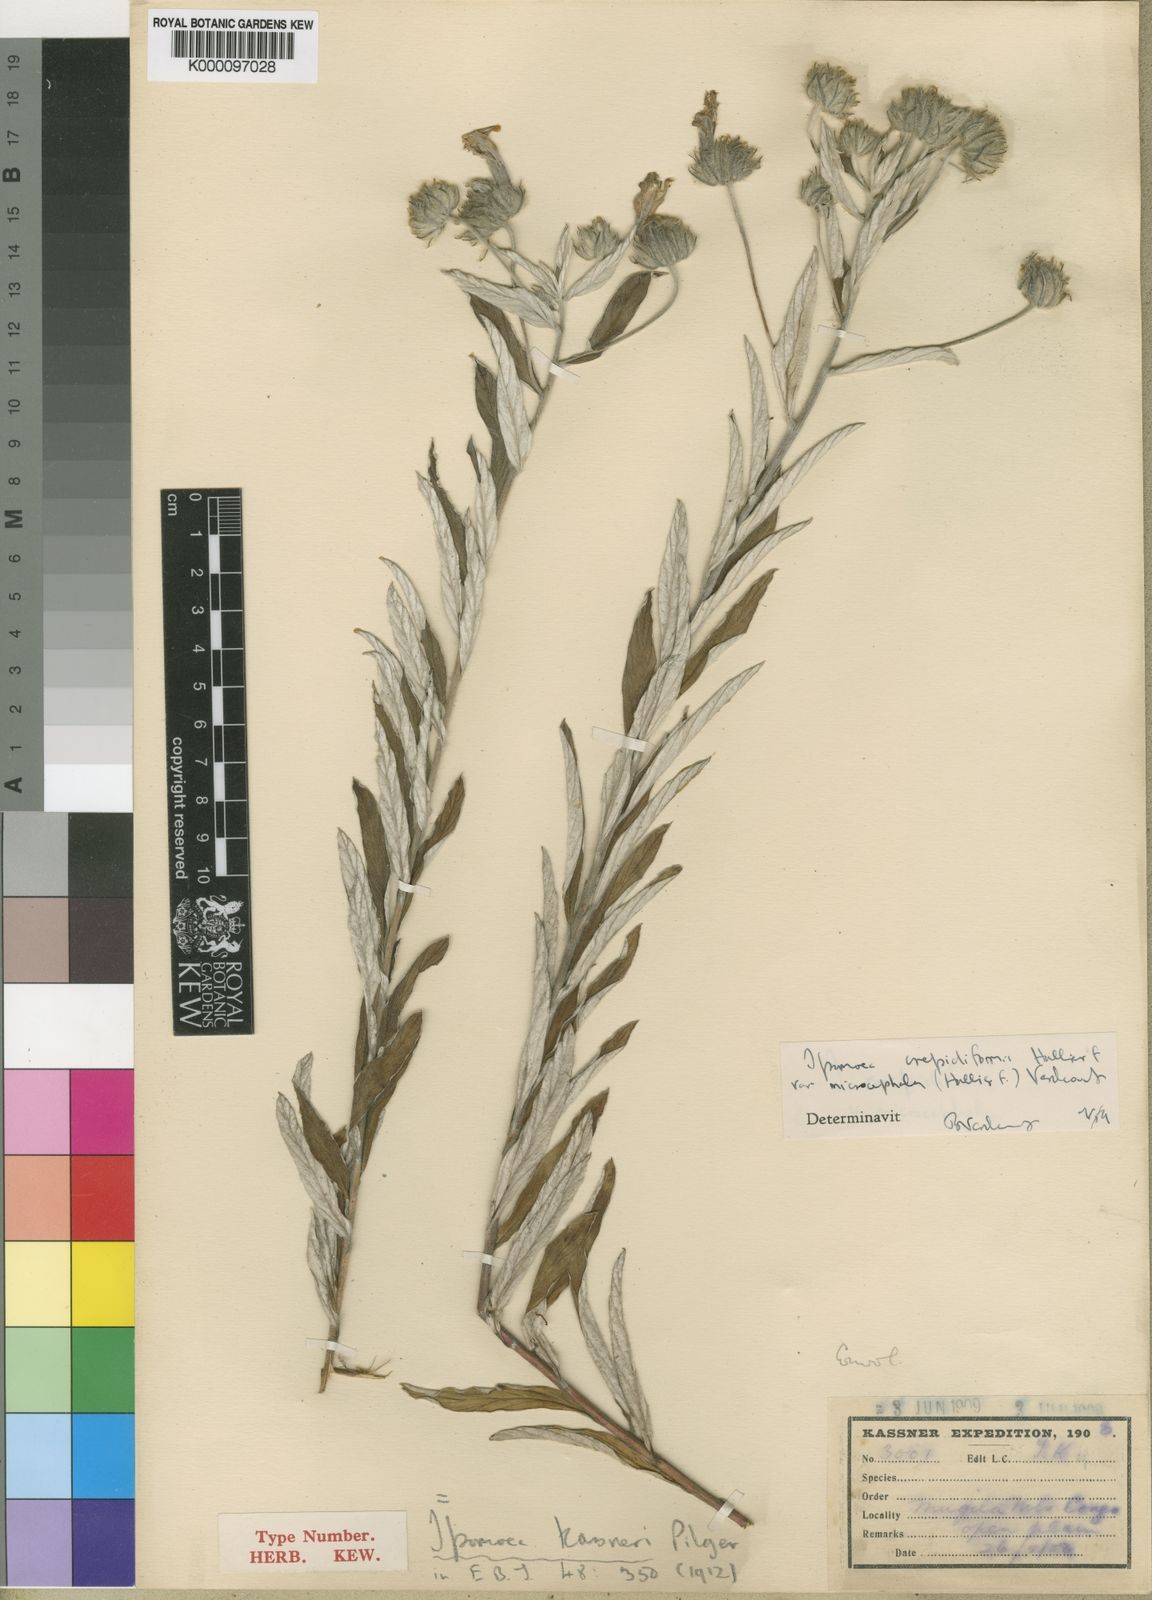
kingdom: Plantae
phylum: Tracheophyta
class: Magnoliopsida
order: Solanales
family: Convolvulaceae
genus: Ipomoea
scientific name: Ipomoea crepidiformis
